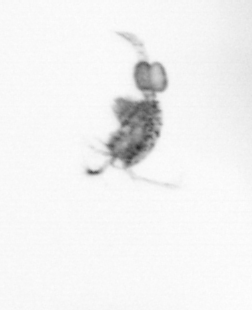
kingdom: Animalia
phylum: Arthropoda
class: Copepoda
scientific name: Copepoda
